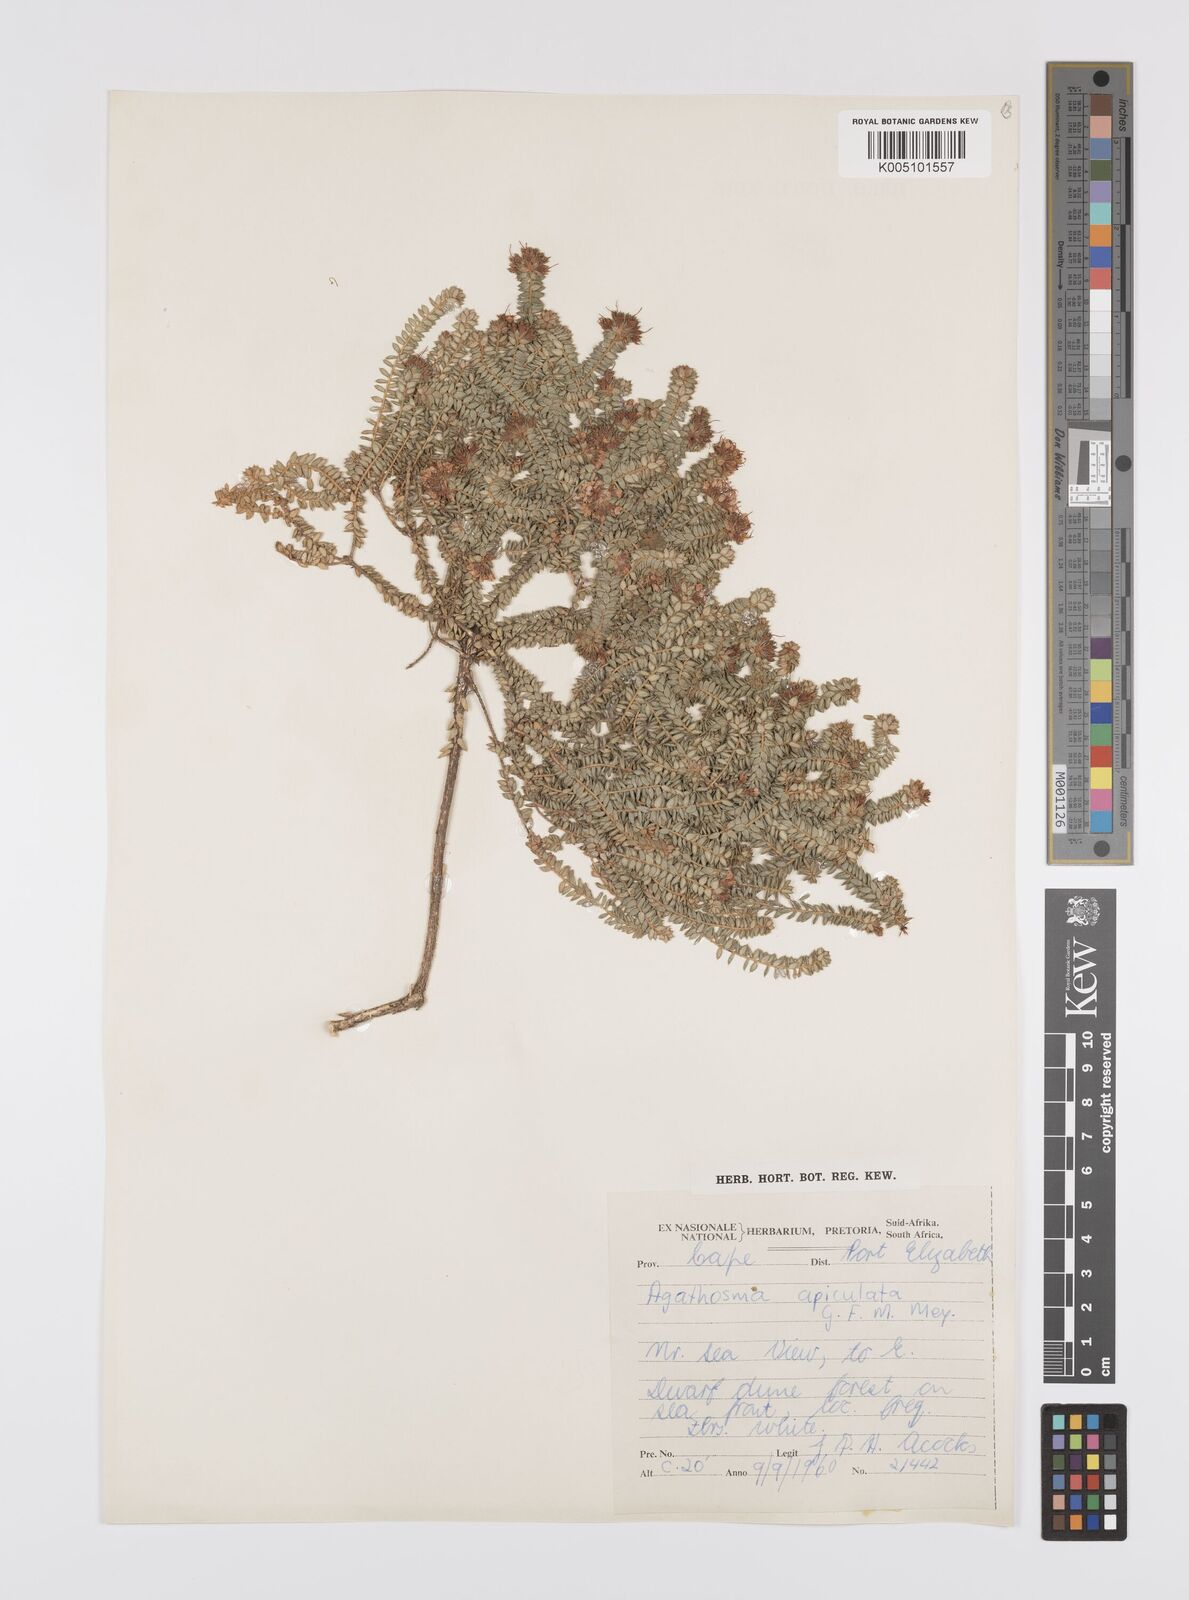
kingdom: Plantae
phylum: Tracheophyta
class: Magnoliopsida
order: Sapindales
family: Rutaceae
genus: Agathosma
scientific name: Agathosma
